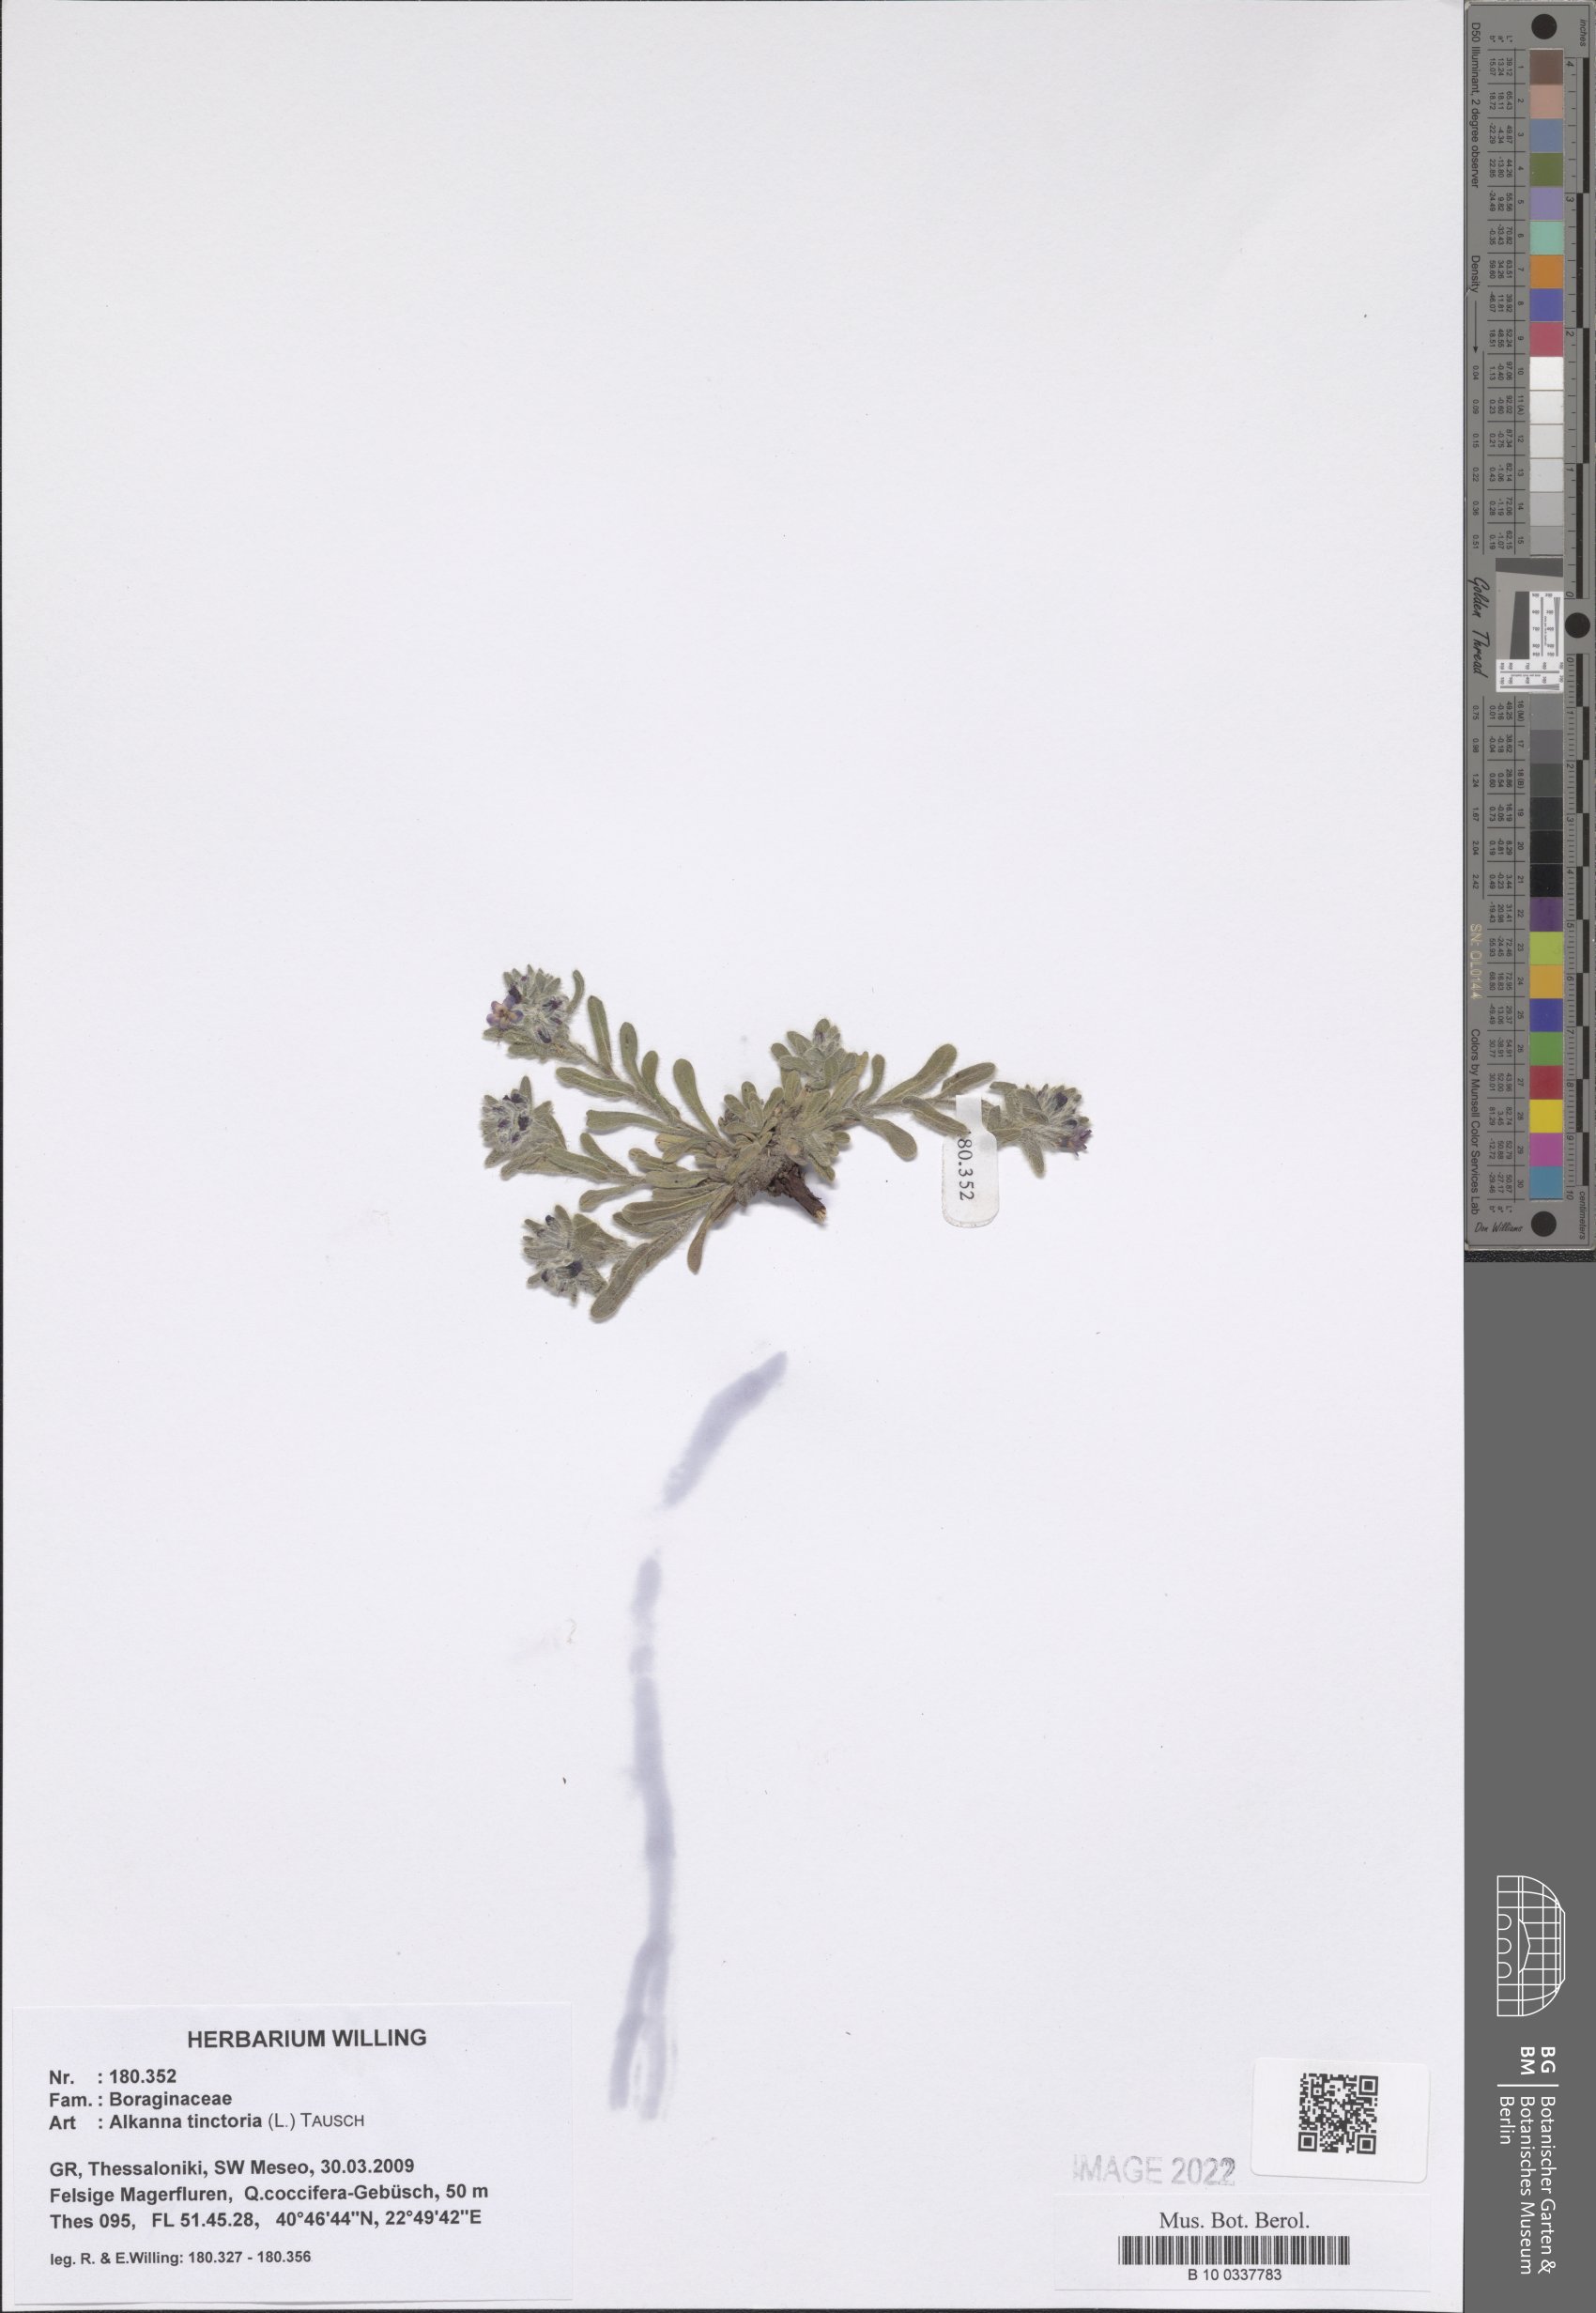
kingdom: Plantae
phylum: Tracheophyta
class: Magnoliopsida
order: Boraginales
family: Boraginaceae
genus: Alkanna
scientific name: Alkanna tinctoria
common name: Dyer's-alkanet
